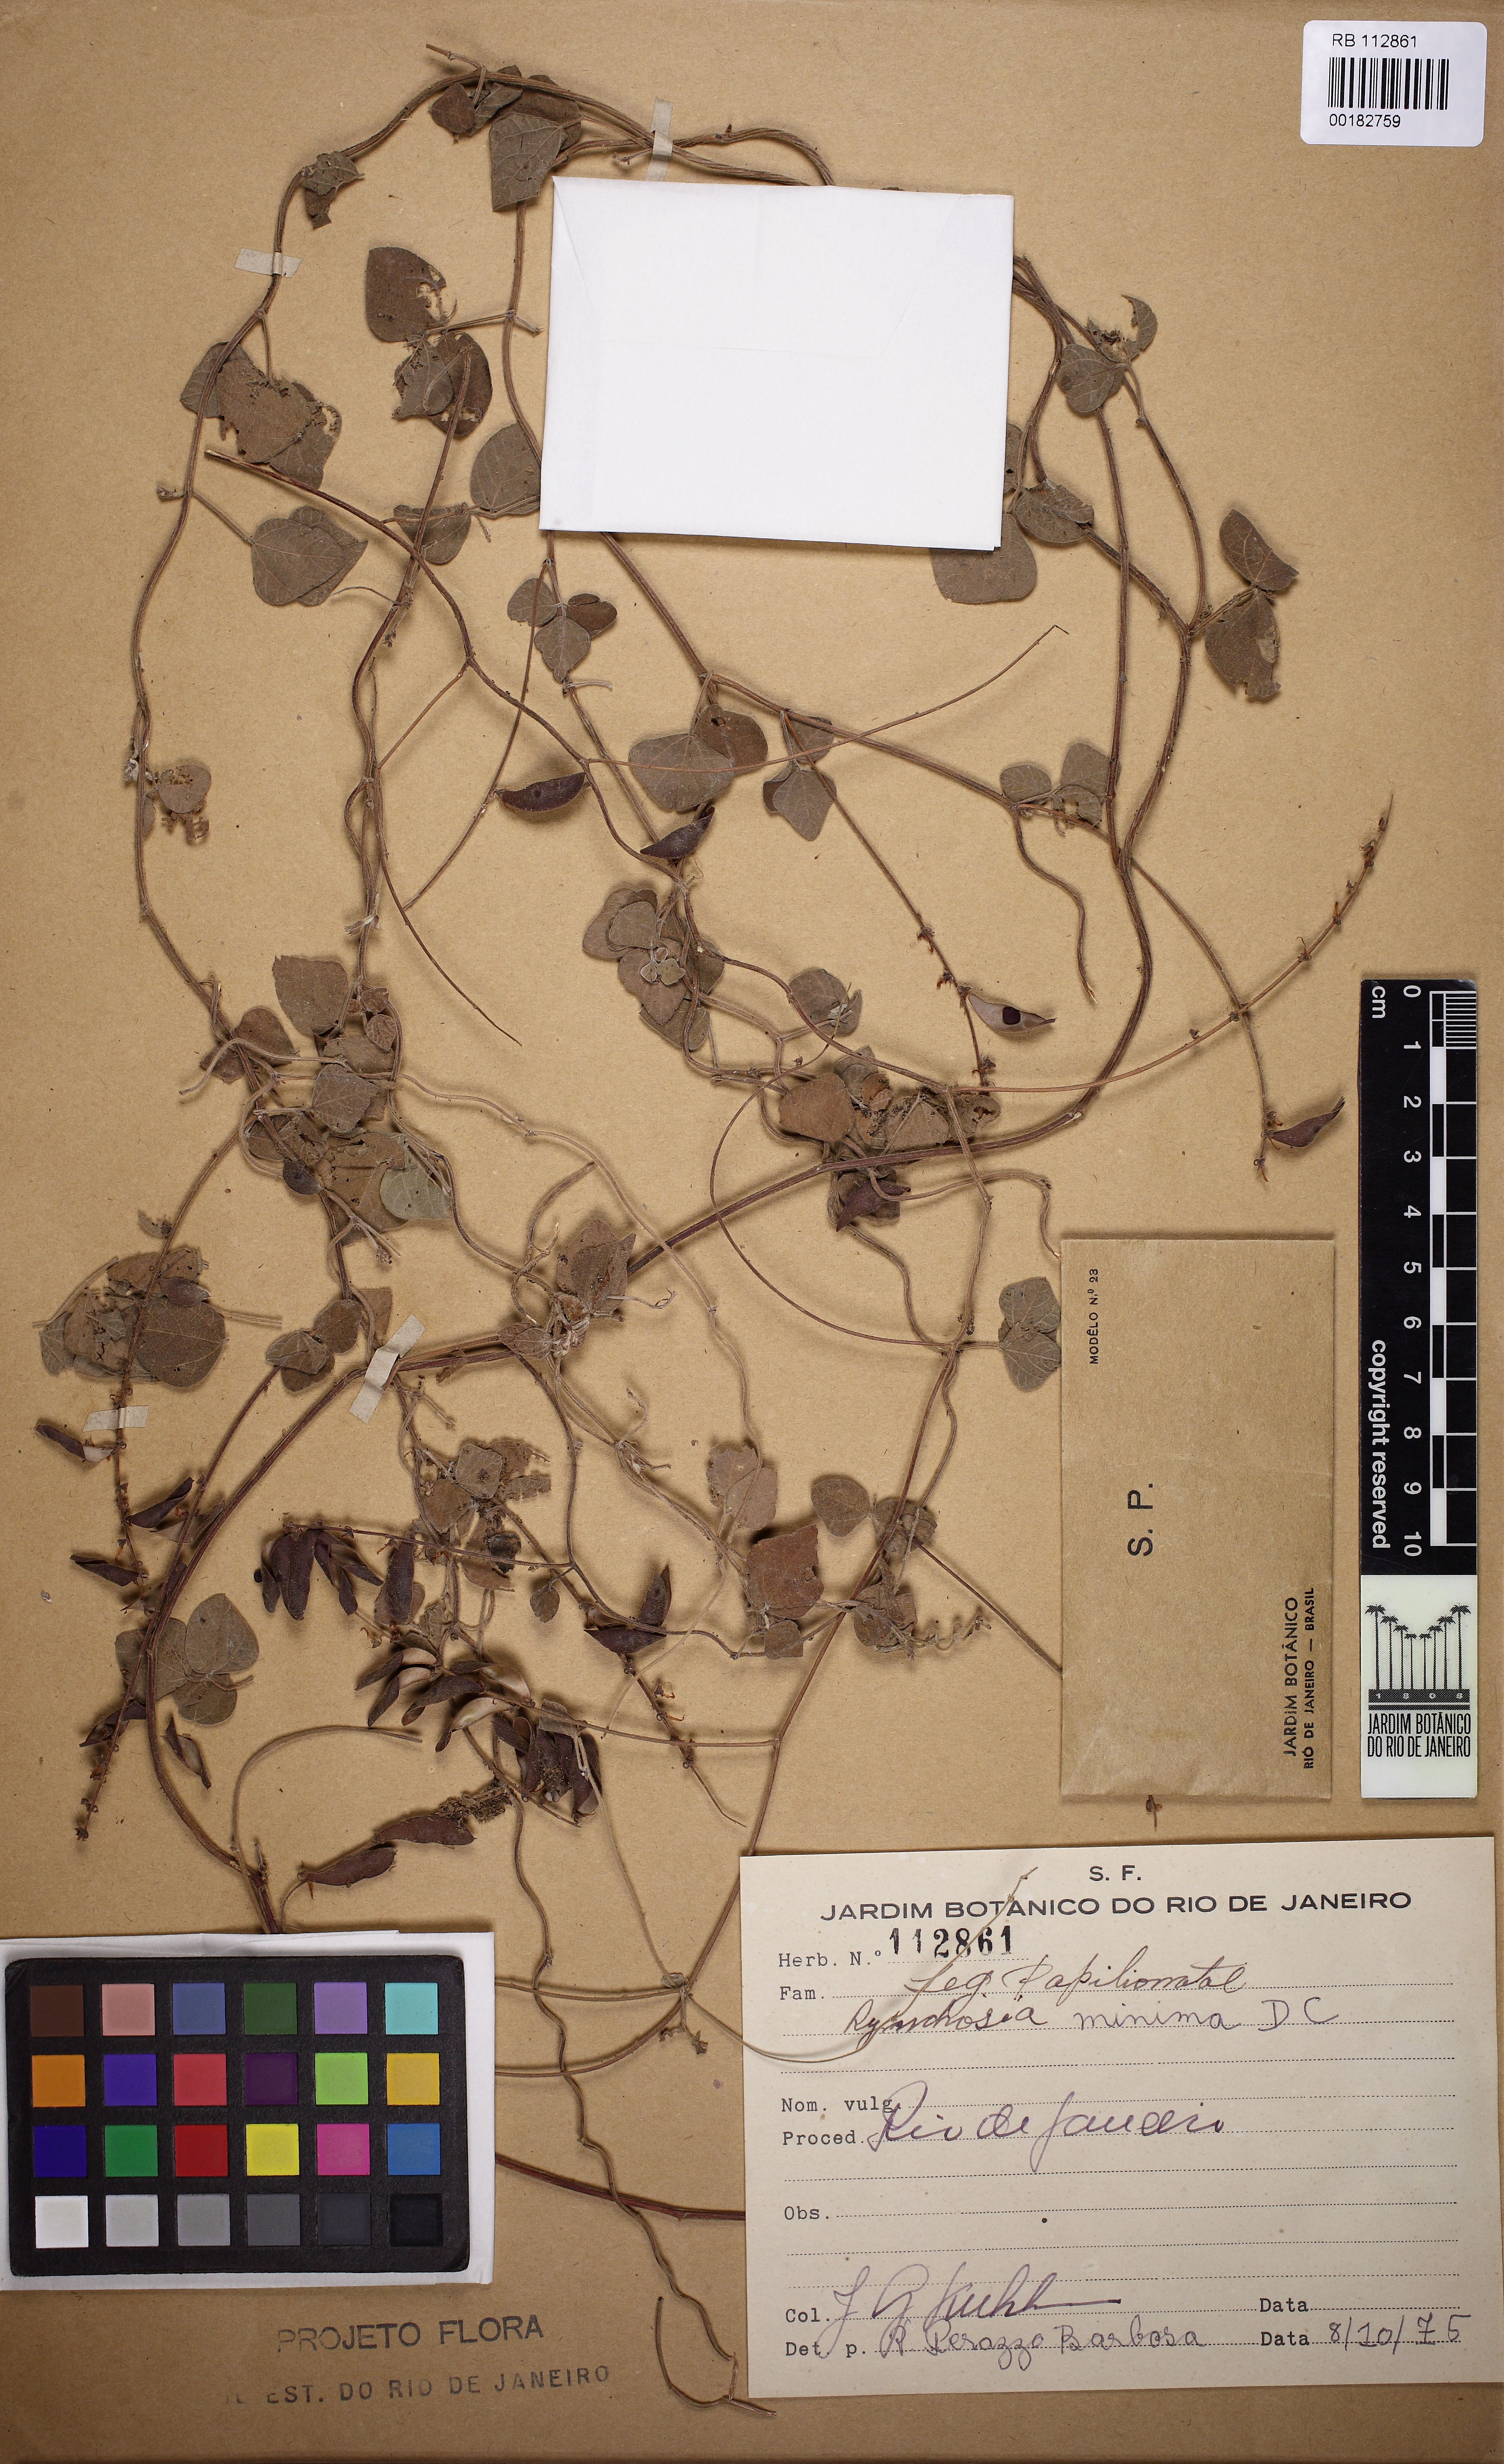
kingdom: Plantae
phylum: Tracheophyta
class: Magnoliopsida
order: Fabales
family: Fabaceae
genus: Rhynchosia
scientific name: Rhynchosia minima
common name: Least snoutbean
